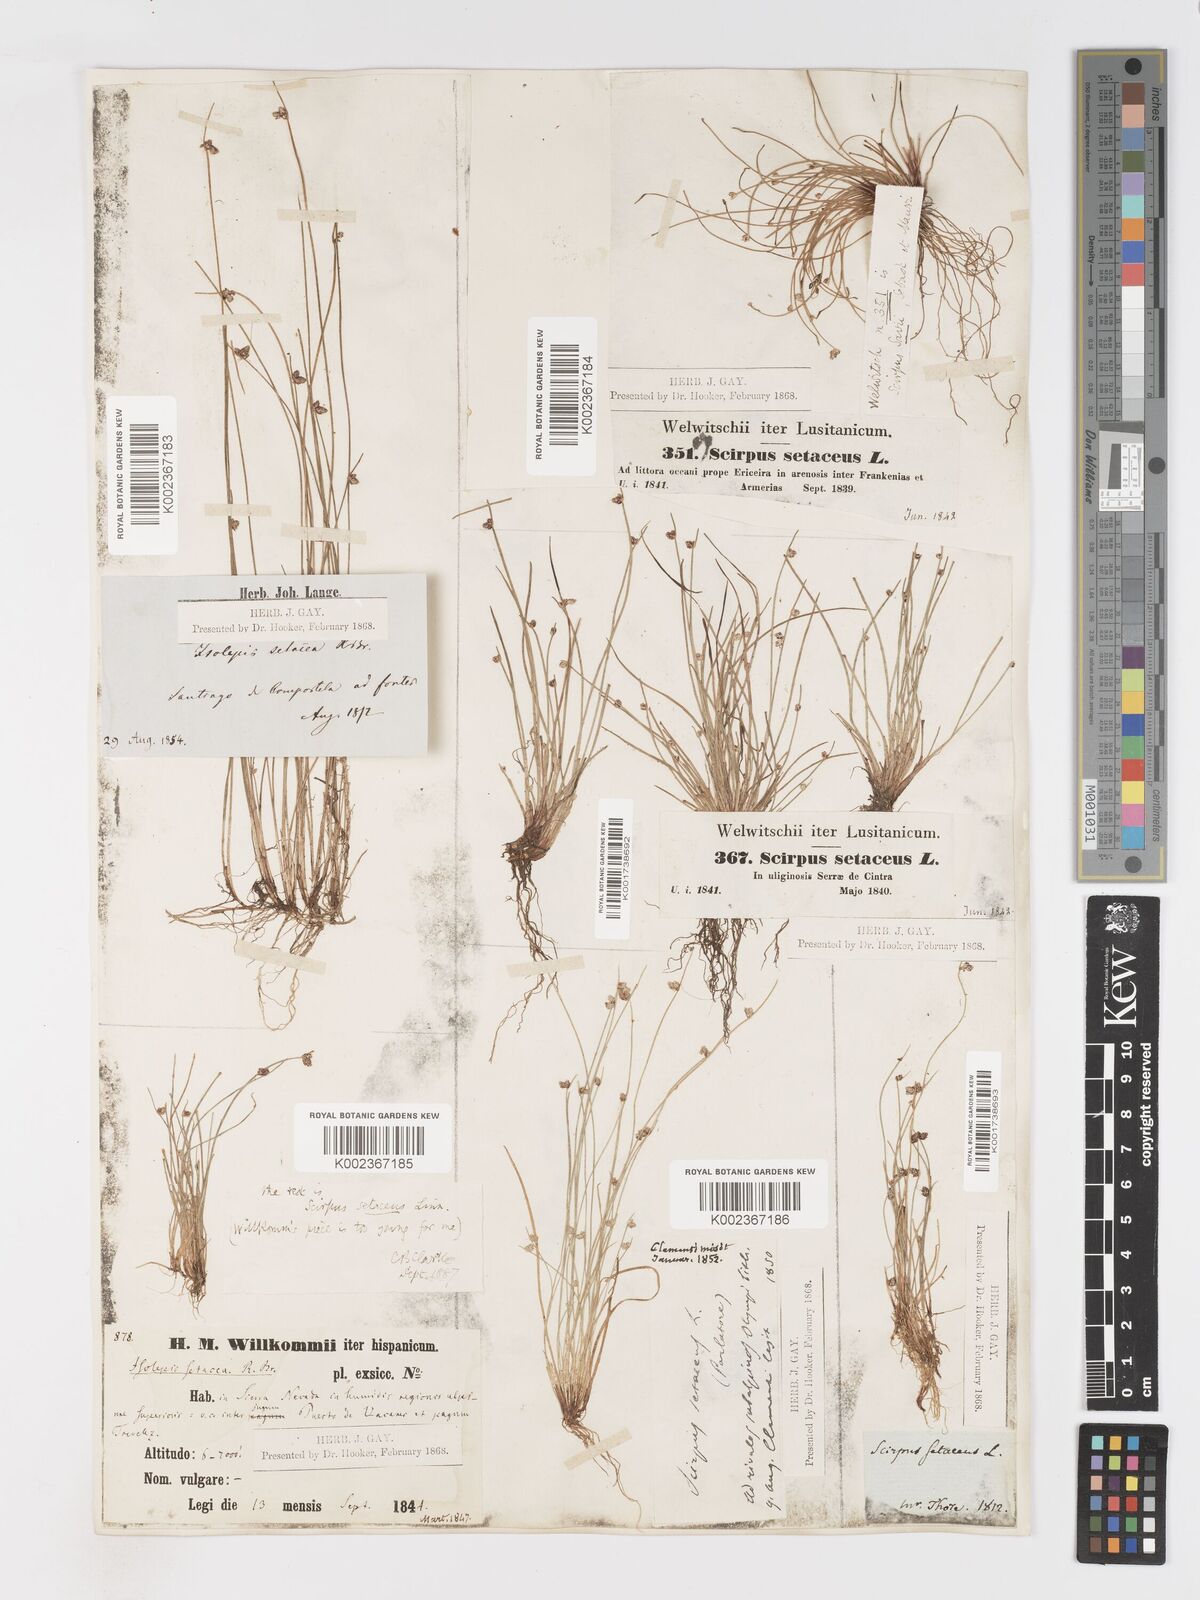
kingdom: Plantae
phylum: Tracheophyta
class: Liliopsida
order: Poales
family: Cyperaceae
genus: Isolepis
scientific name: Isolepis setacea
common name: Bristle club-rush
